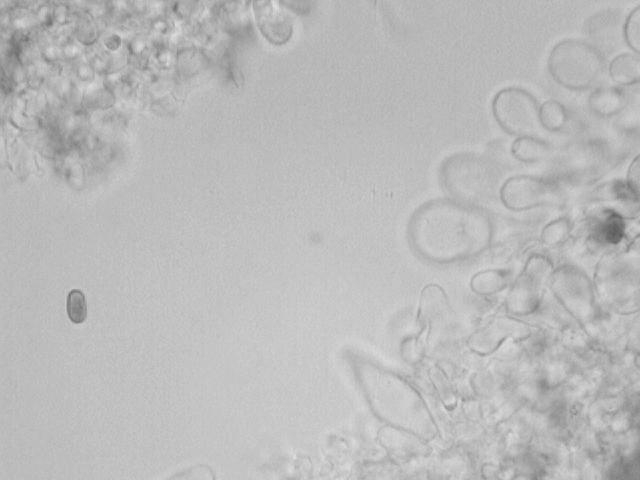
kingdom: Fungi
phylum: Basidiomycota
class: Agaricomycetes
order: Agaricales
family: Psathyrellaceae
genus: Psathyrella
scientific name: Psathyrella spadiceogrisea
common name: gråbrun mørkhat
